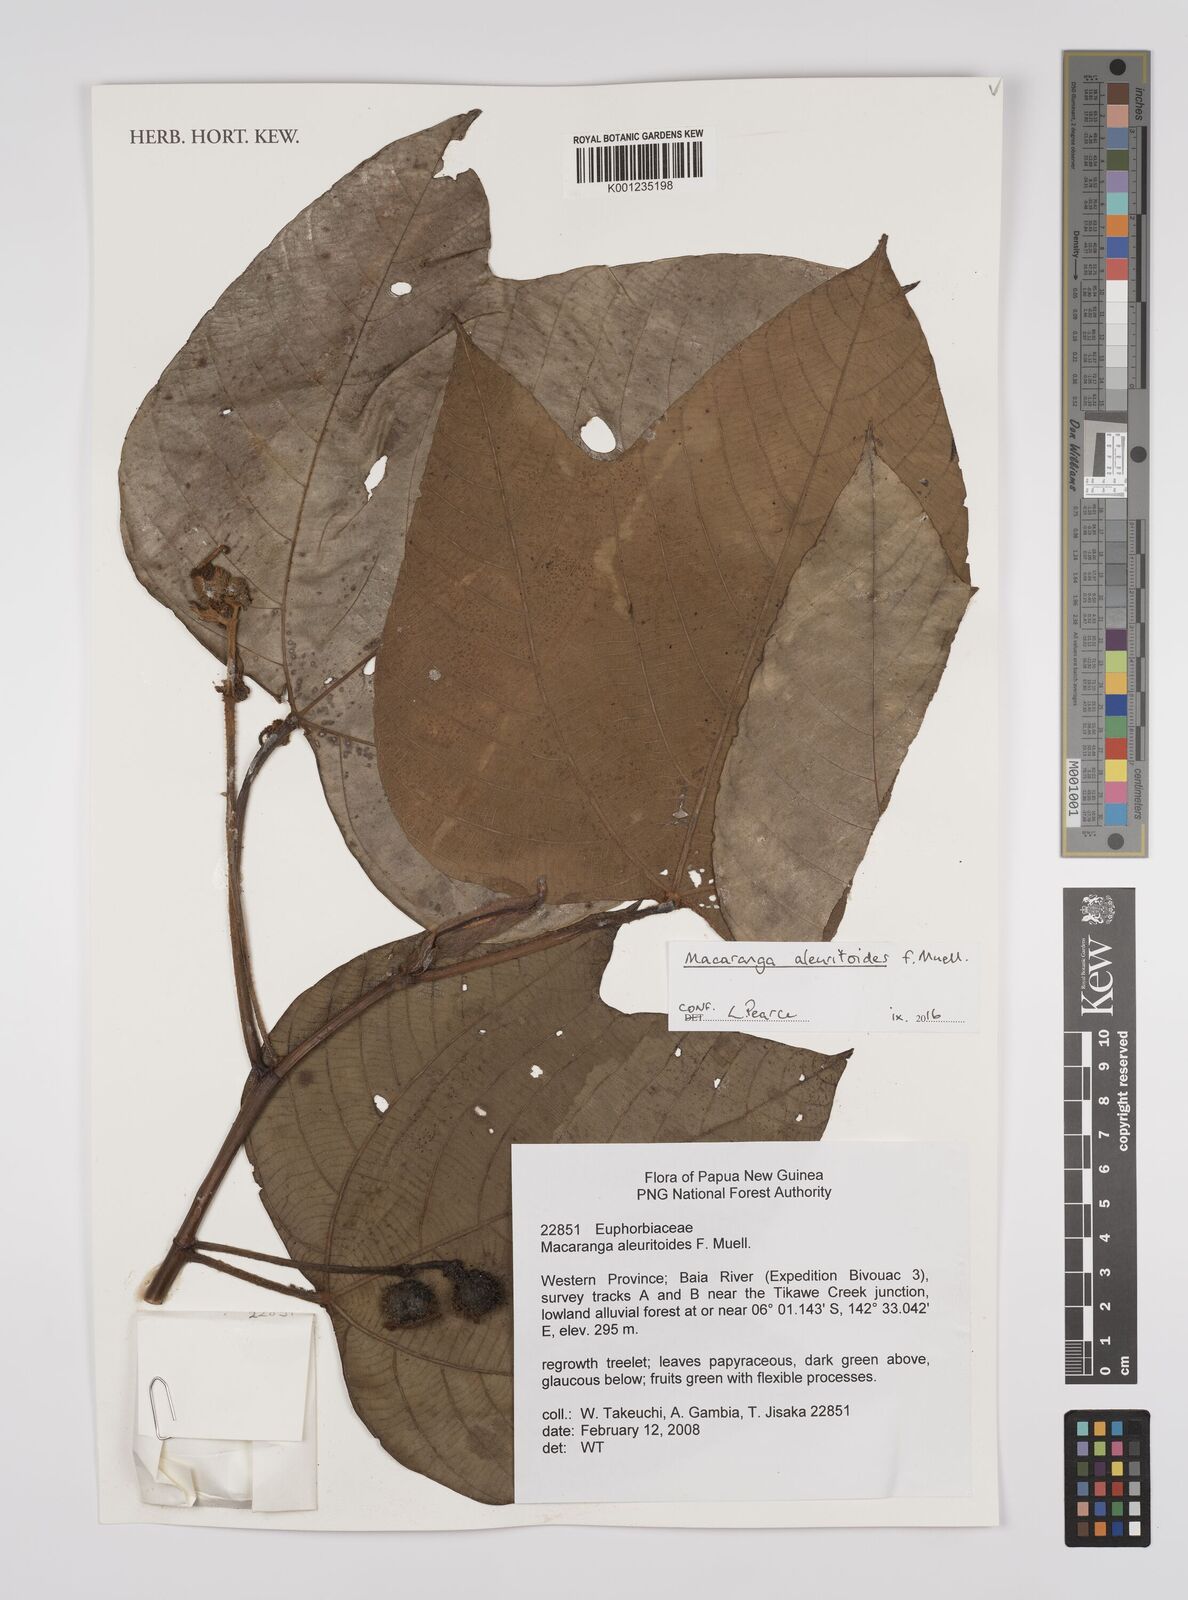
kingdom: Plantae
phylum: Tracheophyta
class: Magnoliopsida
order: Malpighiales
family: Euphorbiaceae
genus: Macaranga
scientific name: Macaranga aleuritoides
